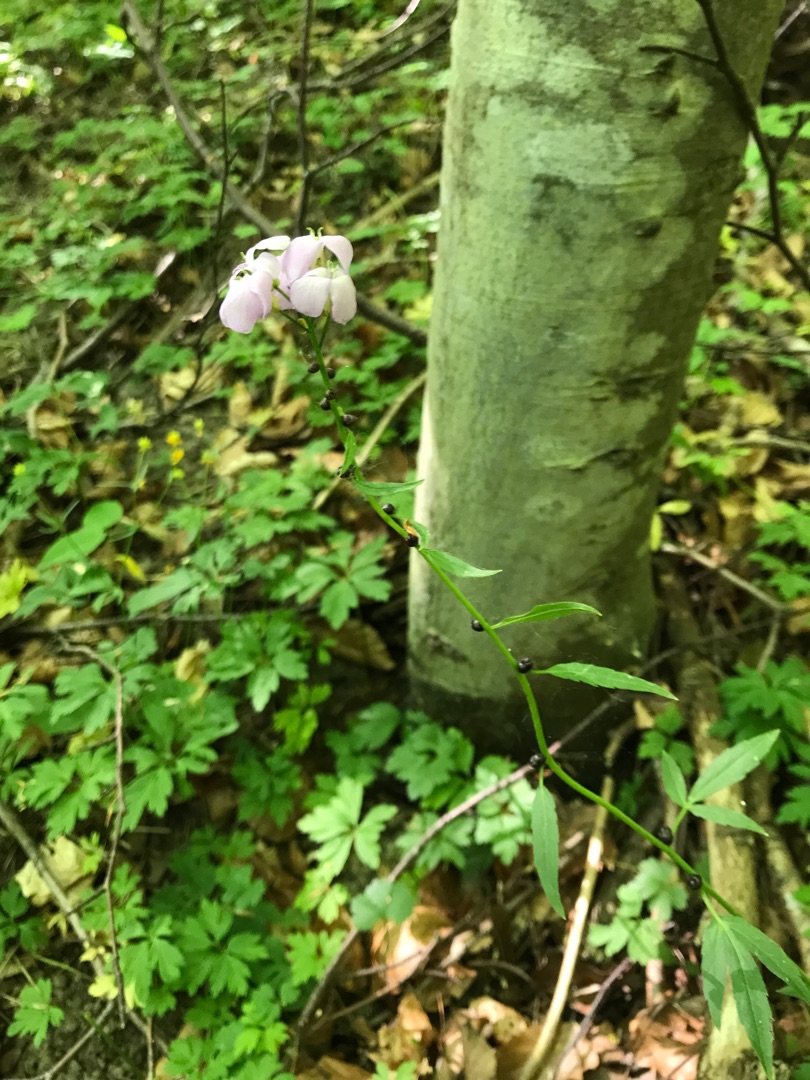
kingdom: Plantae
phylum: Tracheophyta
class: Magnoliopsida
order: Brassicales
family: Brassicaceae
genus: Cardamine
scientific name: Cardamine bulbifera
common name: Tandrod
